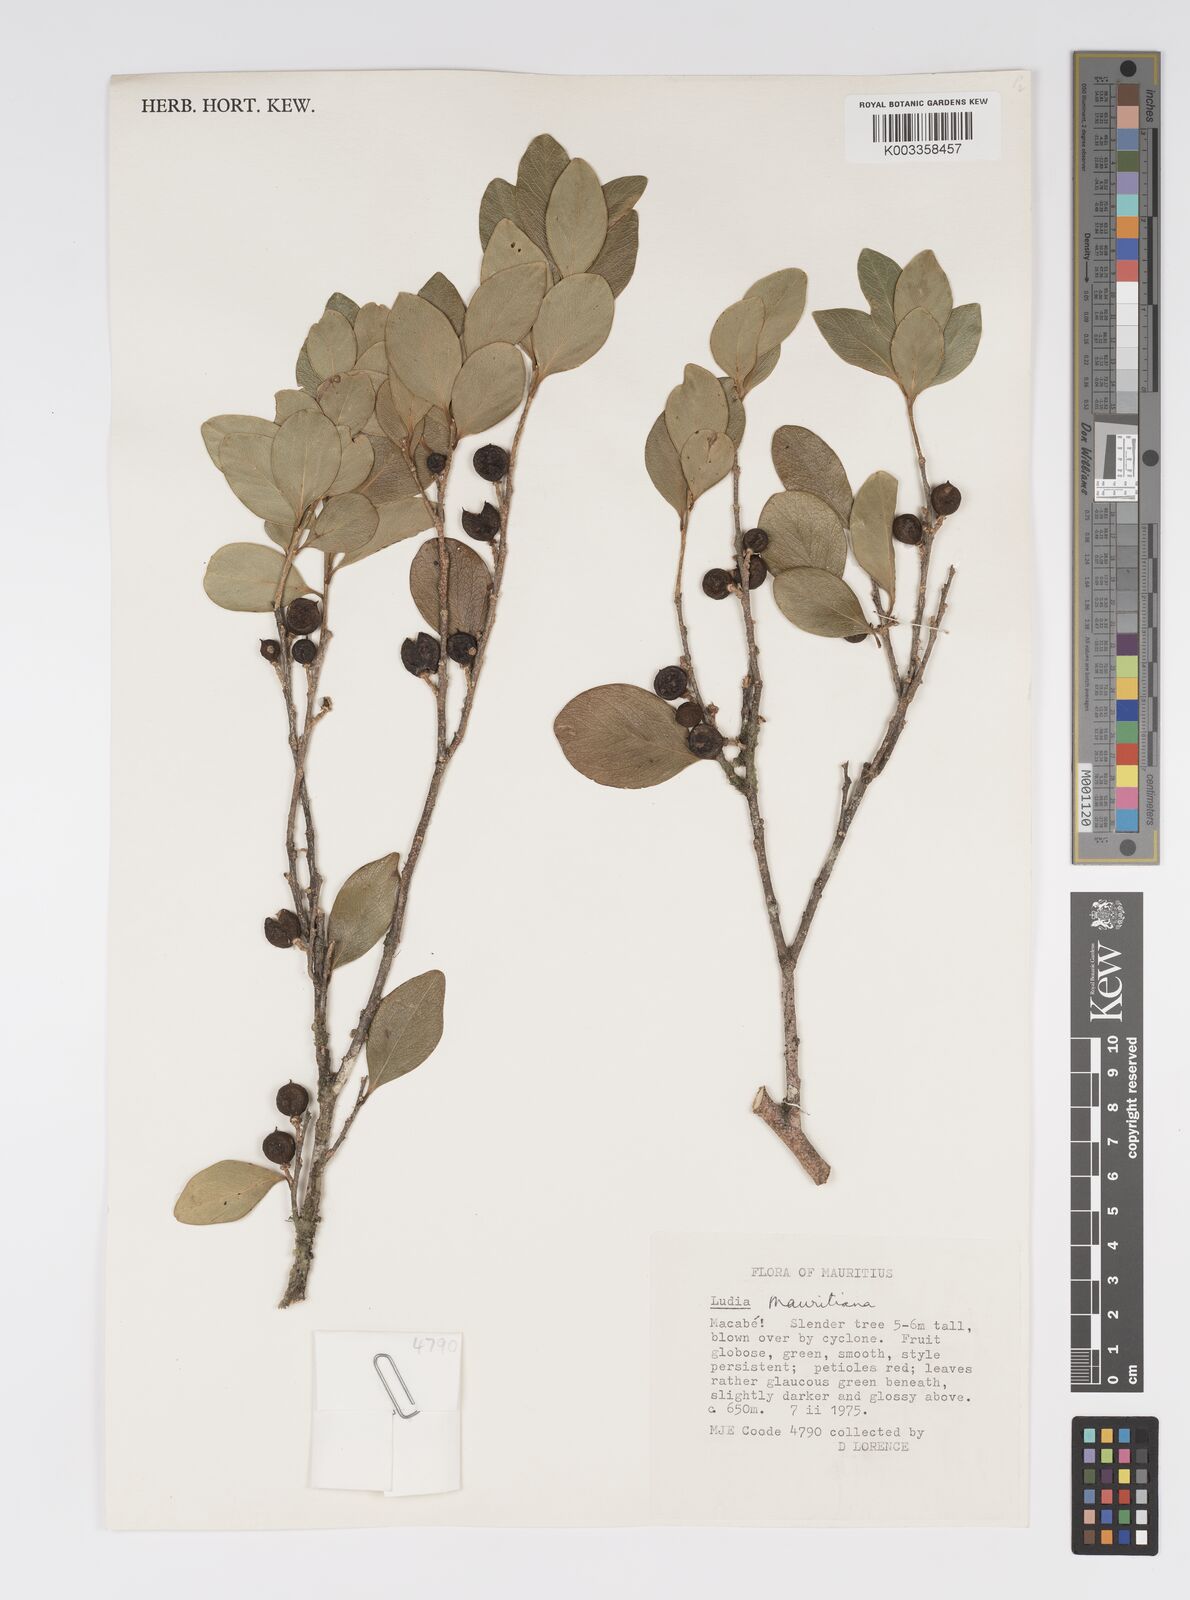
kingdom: Plantae
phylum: Tracheophyta
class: Magnoliopsida
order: Malpighiales
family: Salicaceae
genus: Ludia
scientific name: Ludia mauritiana
